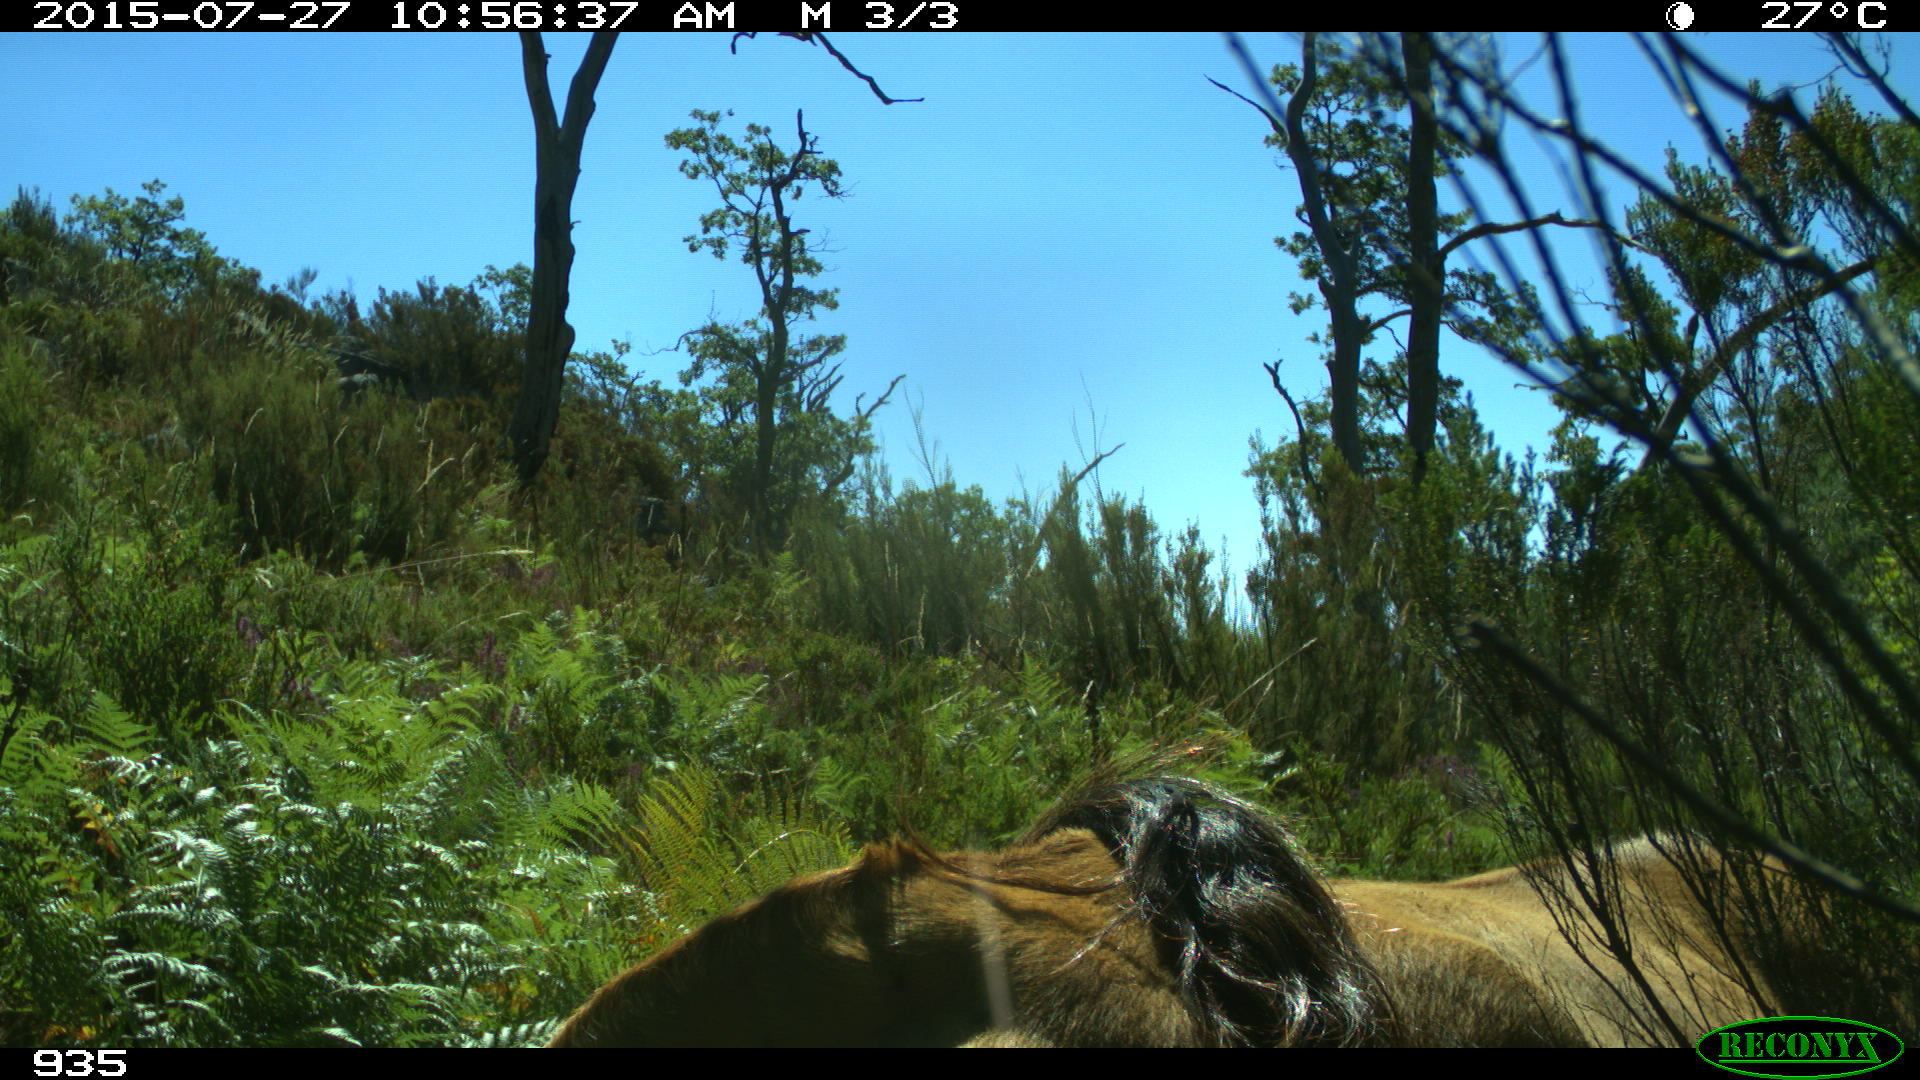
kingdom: Animalia
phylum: Chordata
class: Mammalia
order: Artiodactyla
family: Bovidae
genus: Bos
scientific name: Bos taurus
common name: Domesticated cattle
